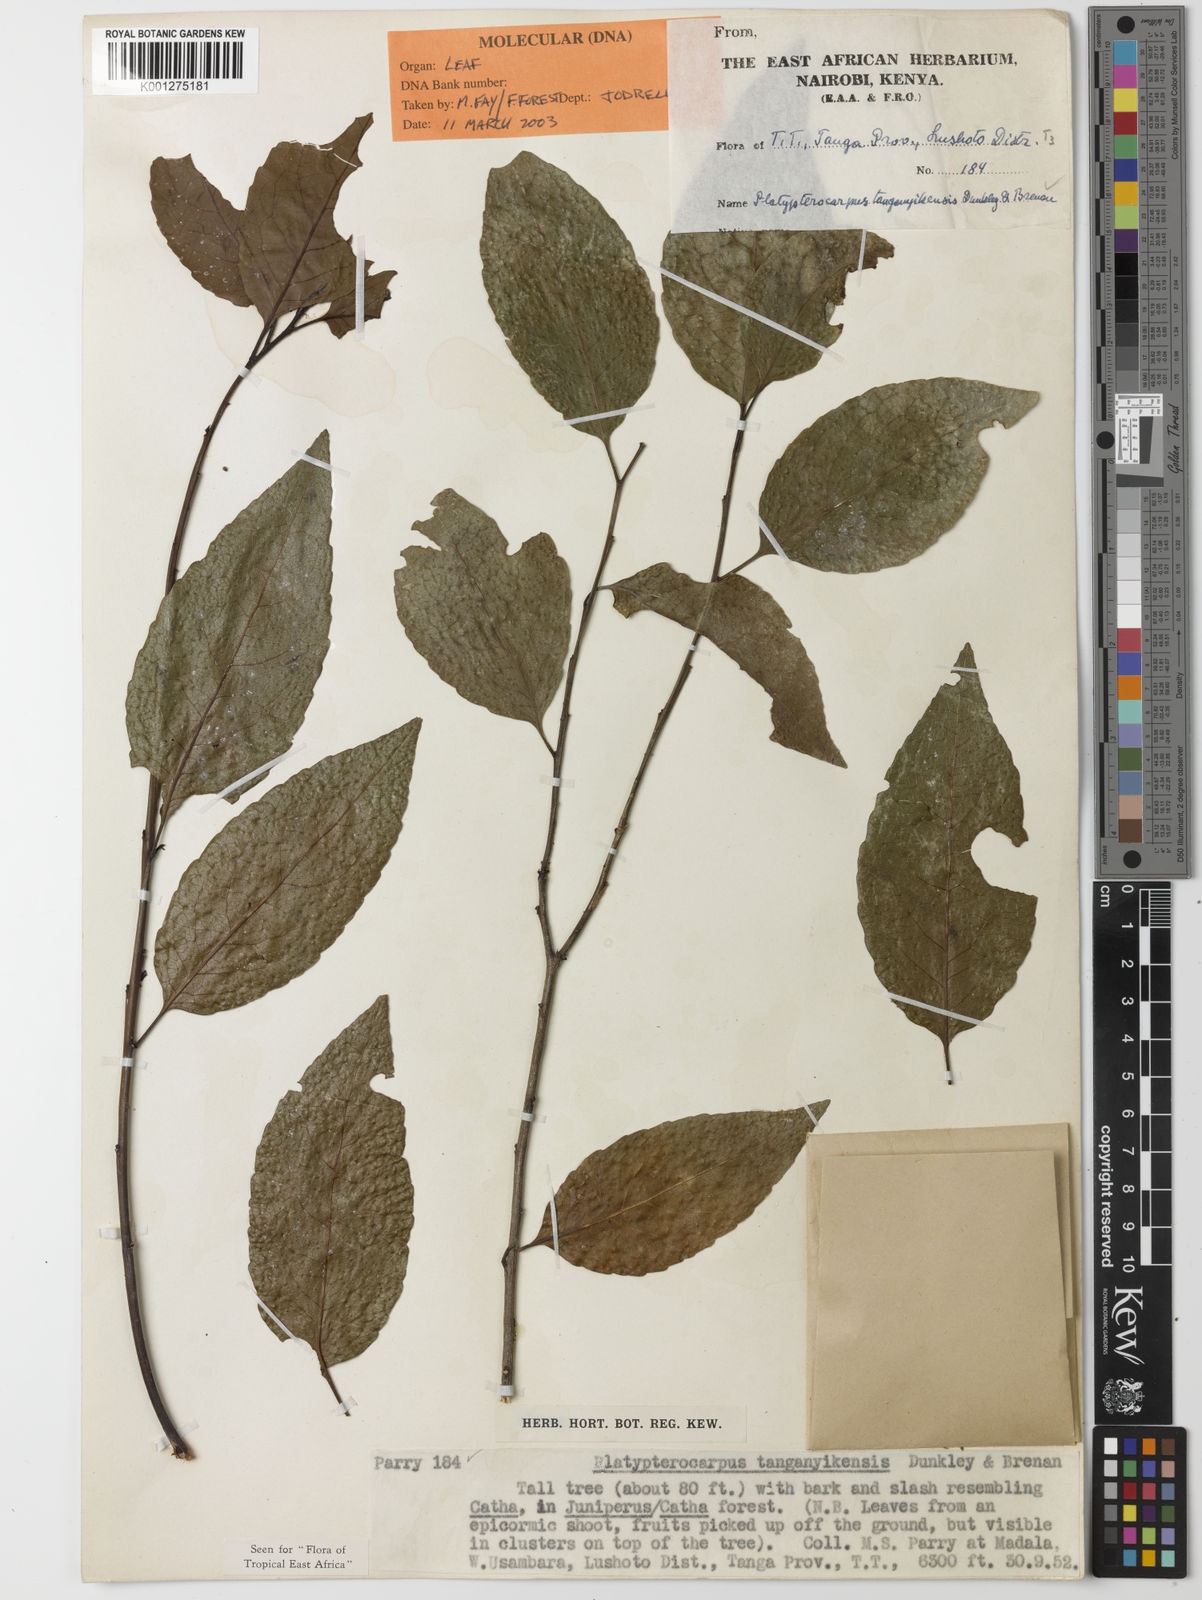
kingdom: Plantae
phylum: Tracheophyta
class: Magnoliopsida
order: Celastrales
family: Celastraceae
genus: Platypterocarpus
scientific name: Platypterocarpus tanganyikensis
